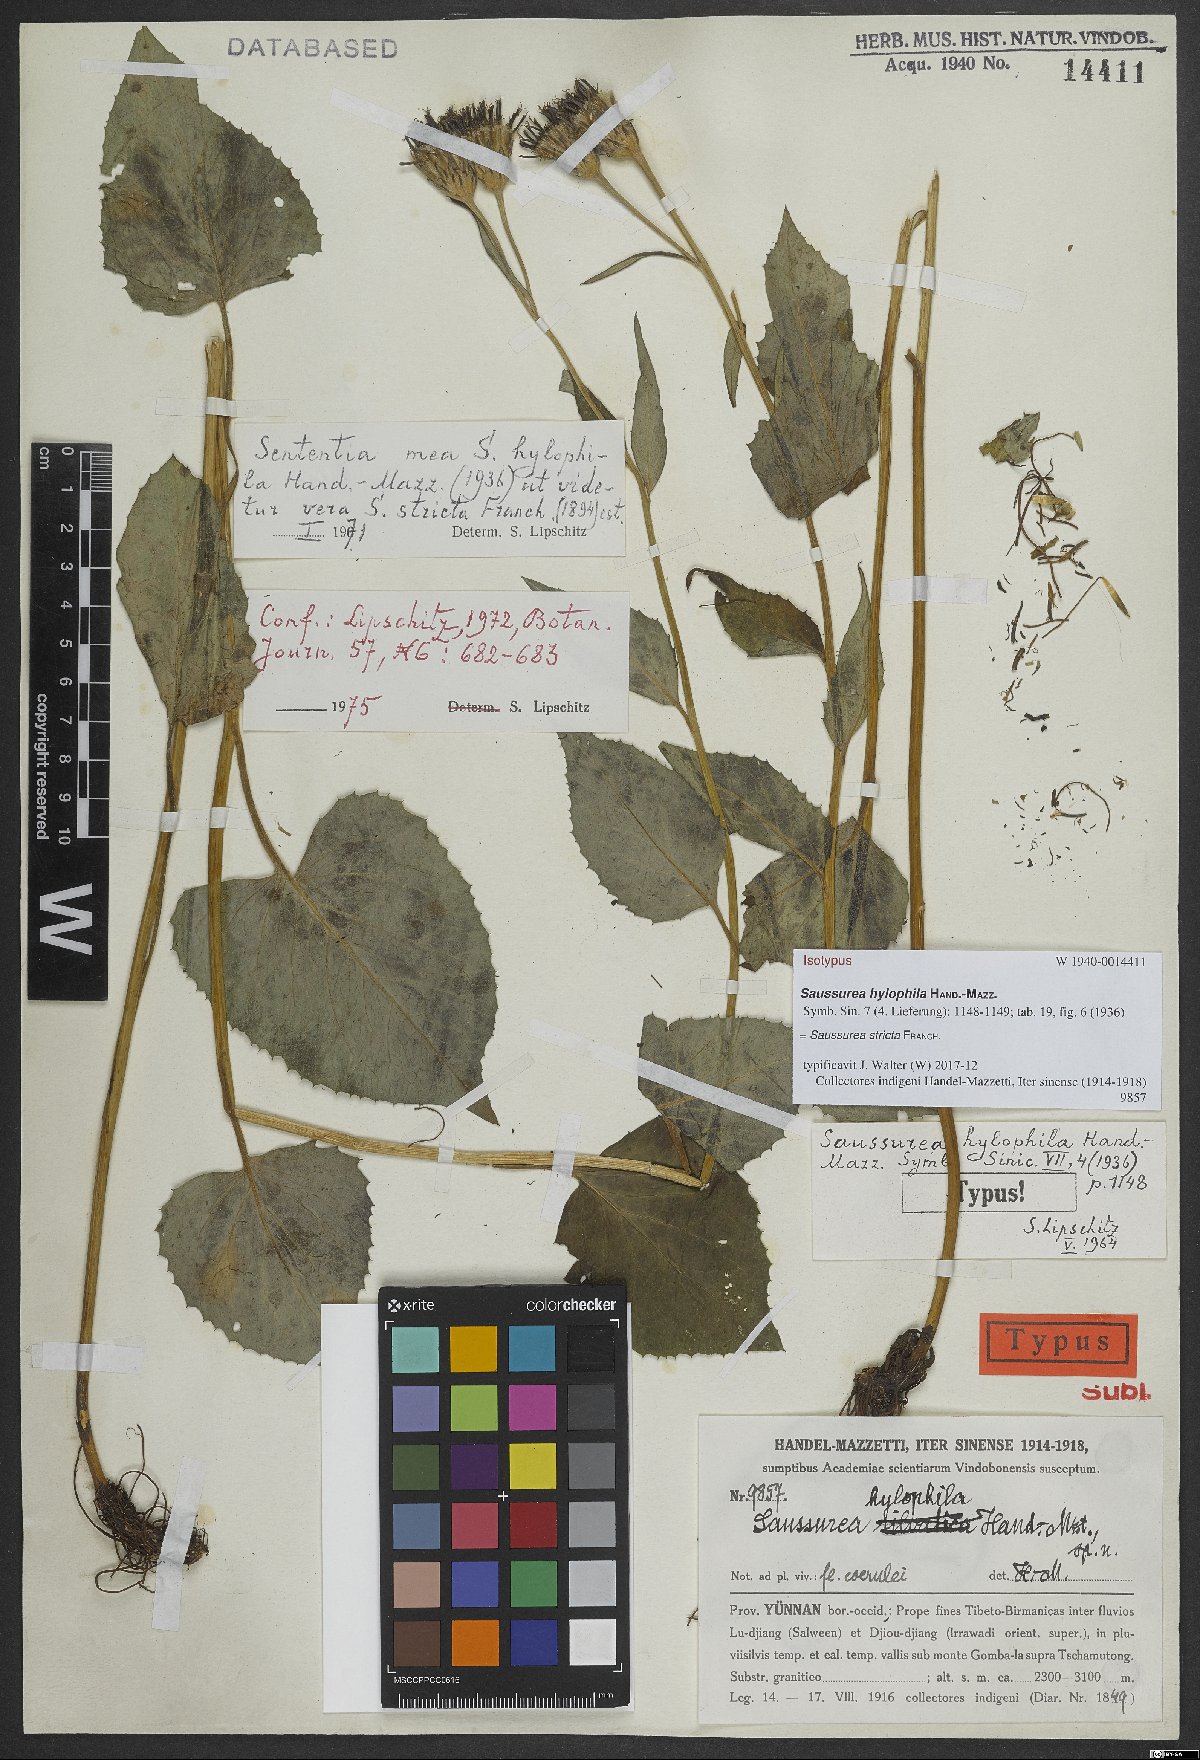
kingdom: Plantae
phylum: Tracheophyta
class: Magnoliopsida
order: Asterales
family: Asteraceae
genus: Saussurea
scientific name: Saussurea stricta
